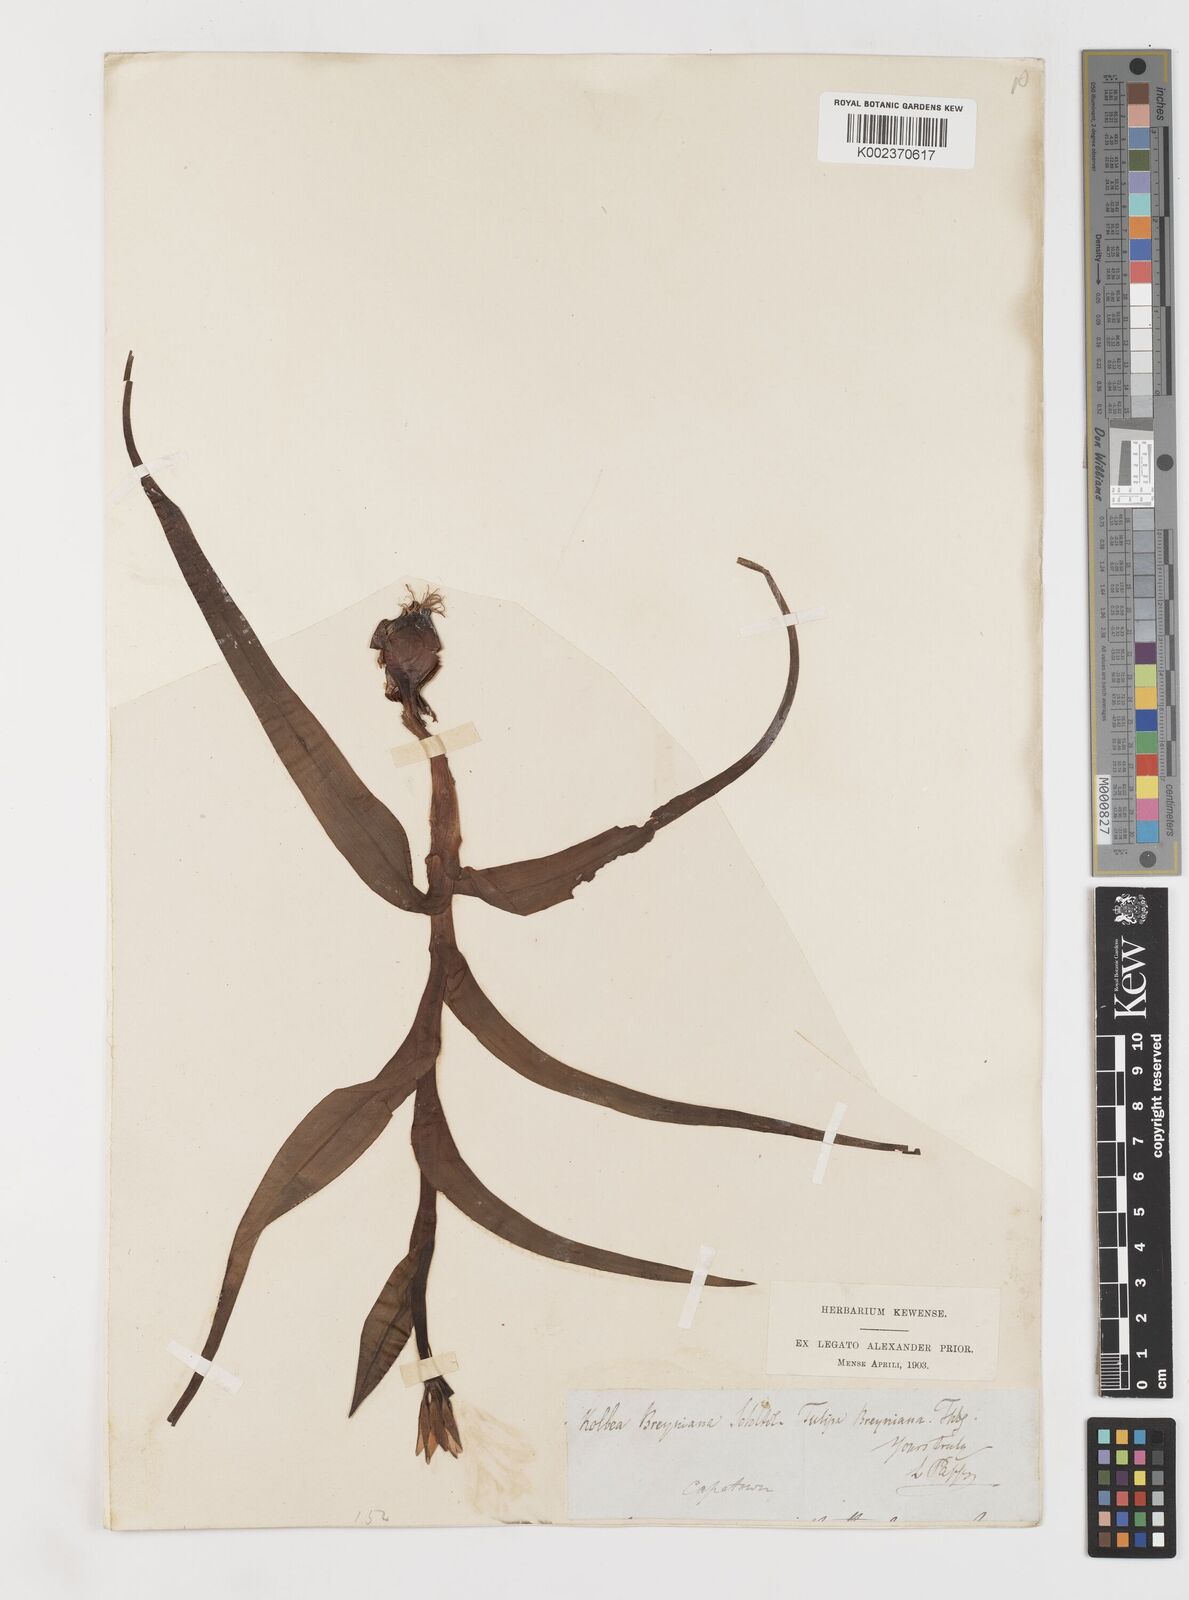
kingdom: Plantae
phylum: Tracheophyta
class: Liliopsida
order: Liliales
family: Colchicaceae
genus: Baeometra
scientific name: Baeometra uniflora
